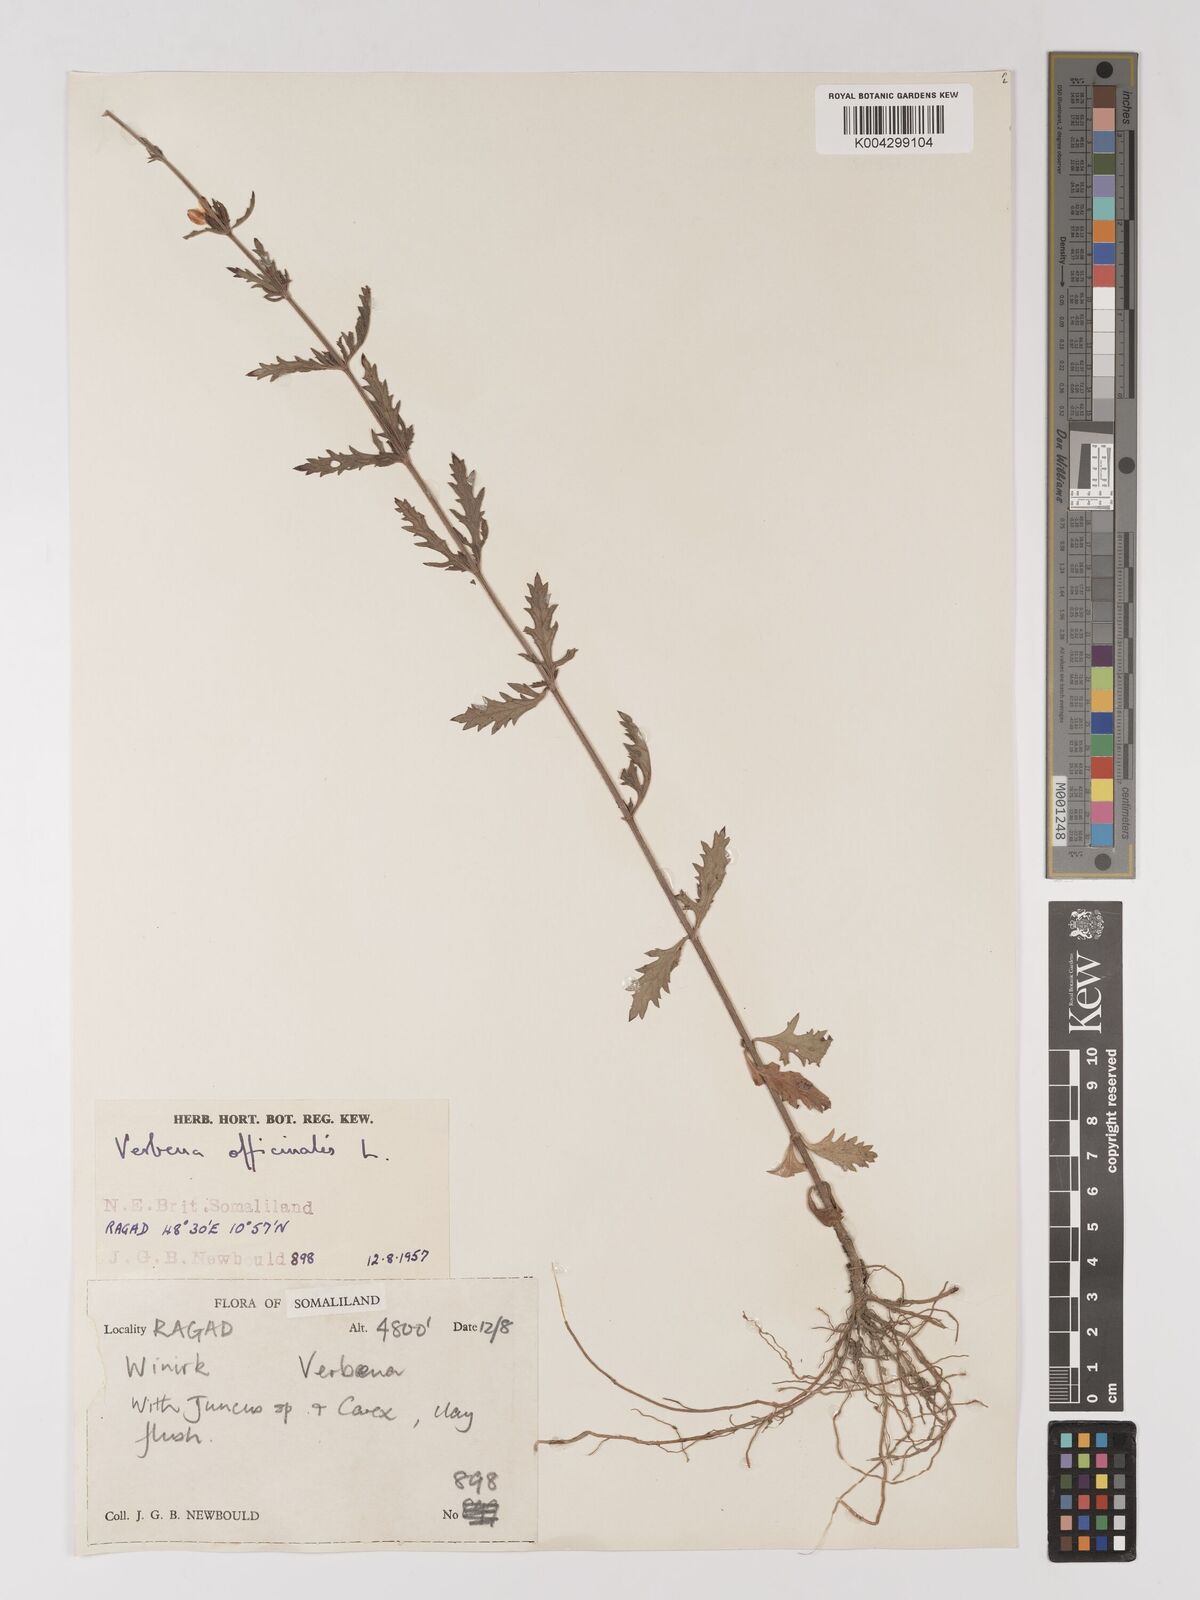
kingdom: Plantae
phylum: Tracheophyta
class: Magnoliopsida
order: Lamiales
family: Verbenaceae
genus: Verbena
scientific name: Verbena officinalis
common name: Vervain
